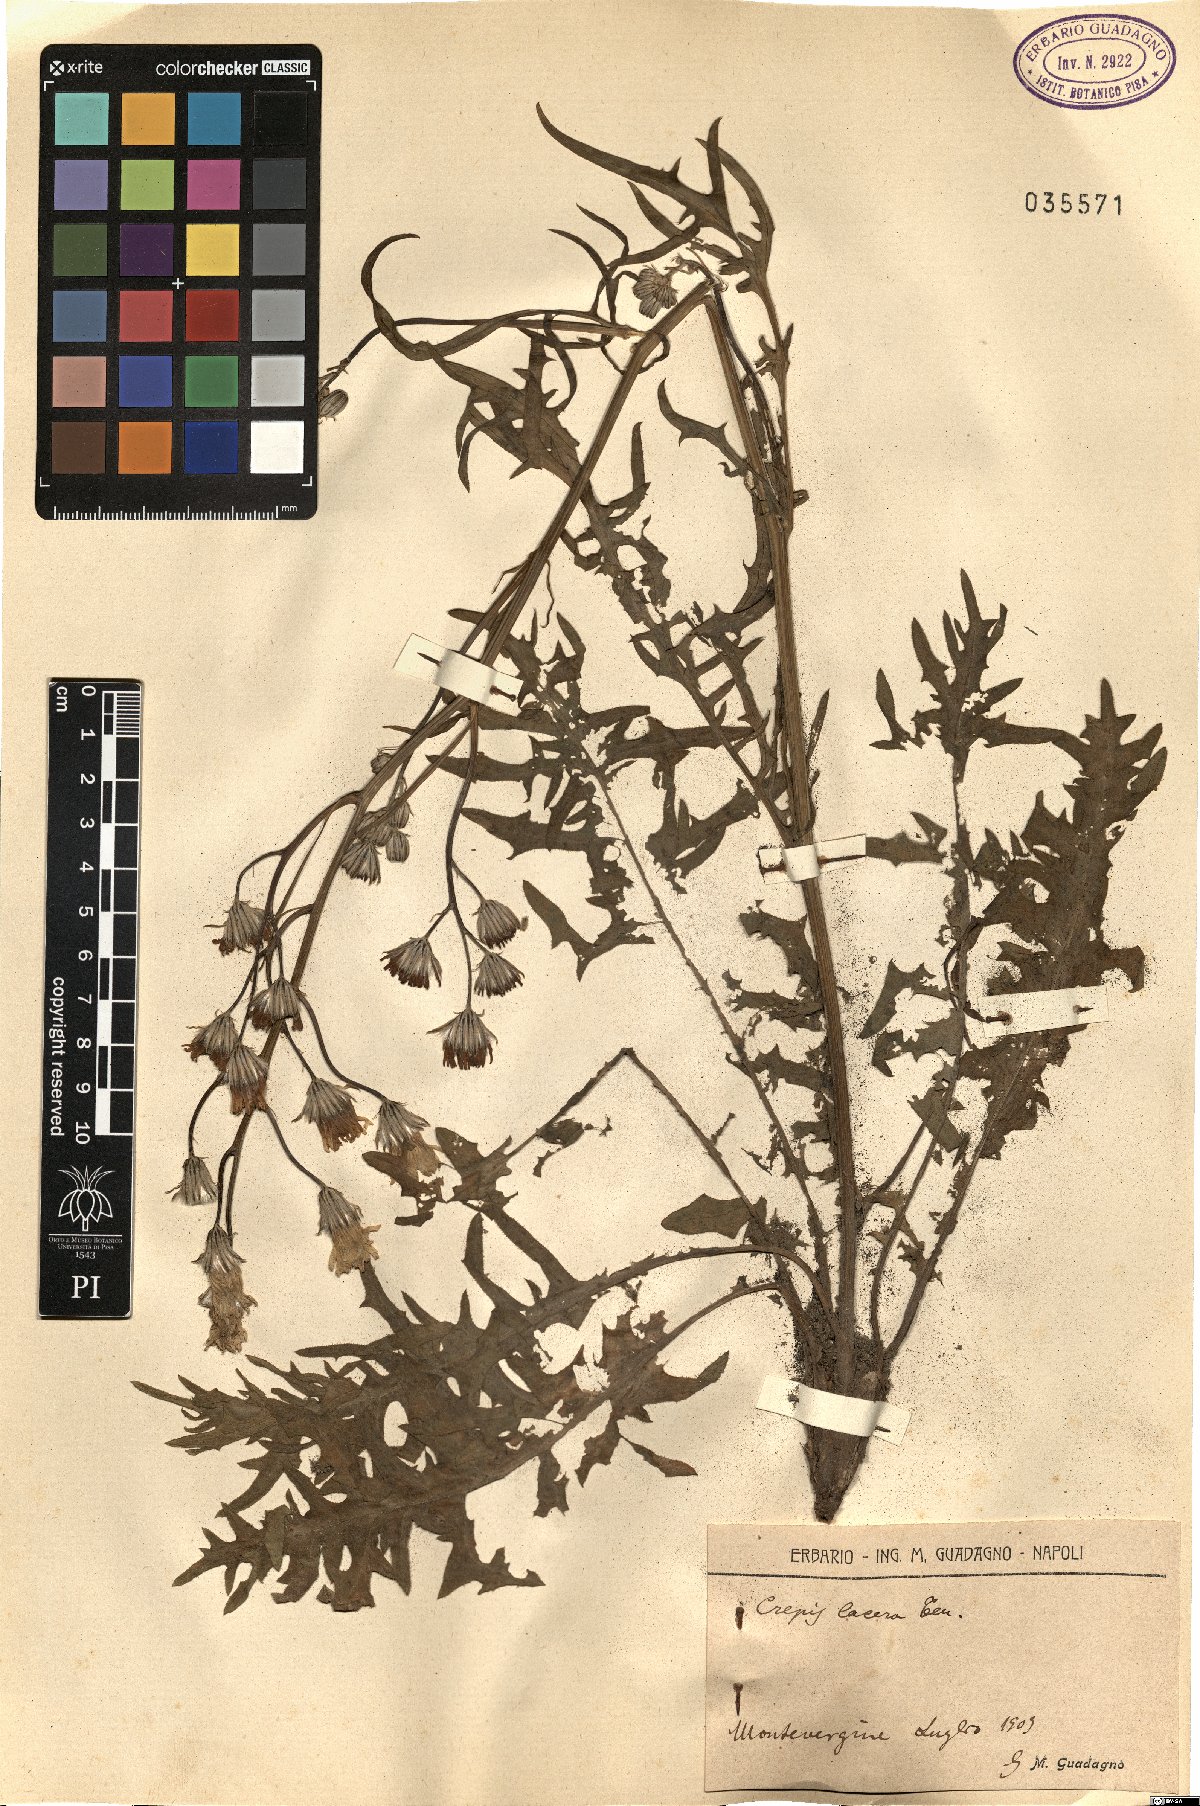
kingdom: Plantae
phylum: Tracheophyta
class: Magnoliopsida
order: Asterales
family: Asteraceae
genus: Crepis
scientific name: Crepis lacera
